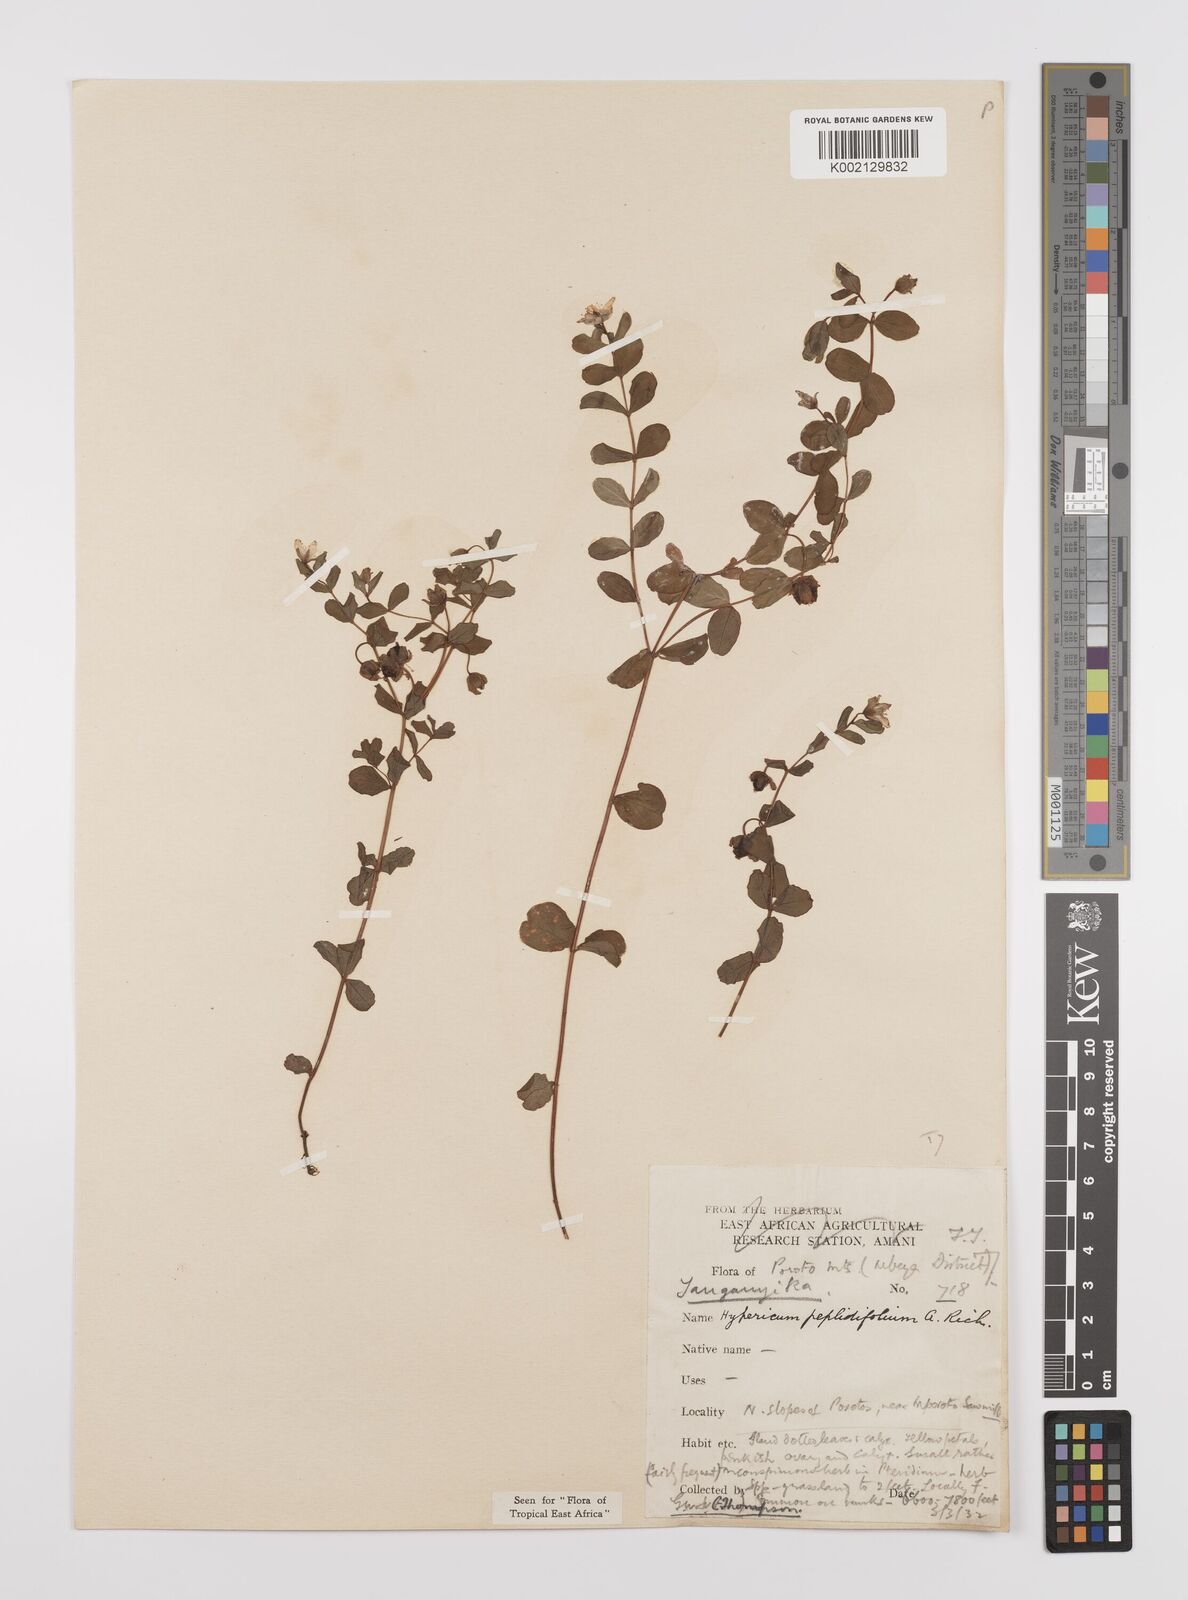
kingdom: Plantae
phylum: Tracheophyta
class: Magnoliopsida
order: Malpighiales
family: Hypericaceae
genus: Hypericum
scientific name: Hypericum peplidifolium
